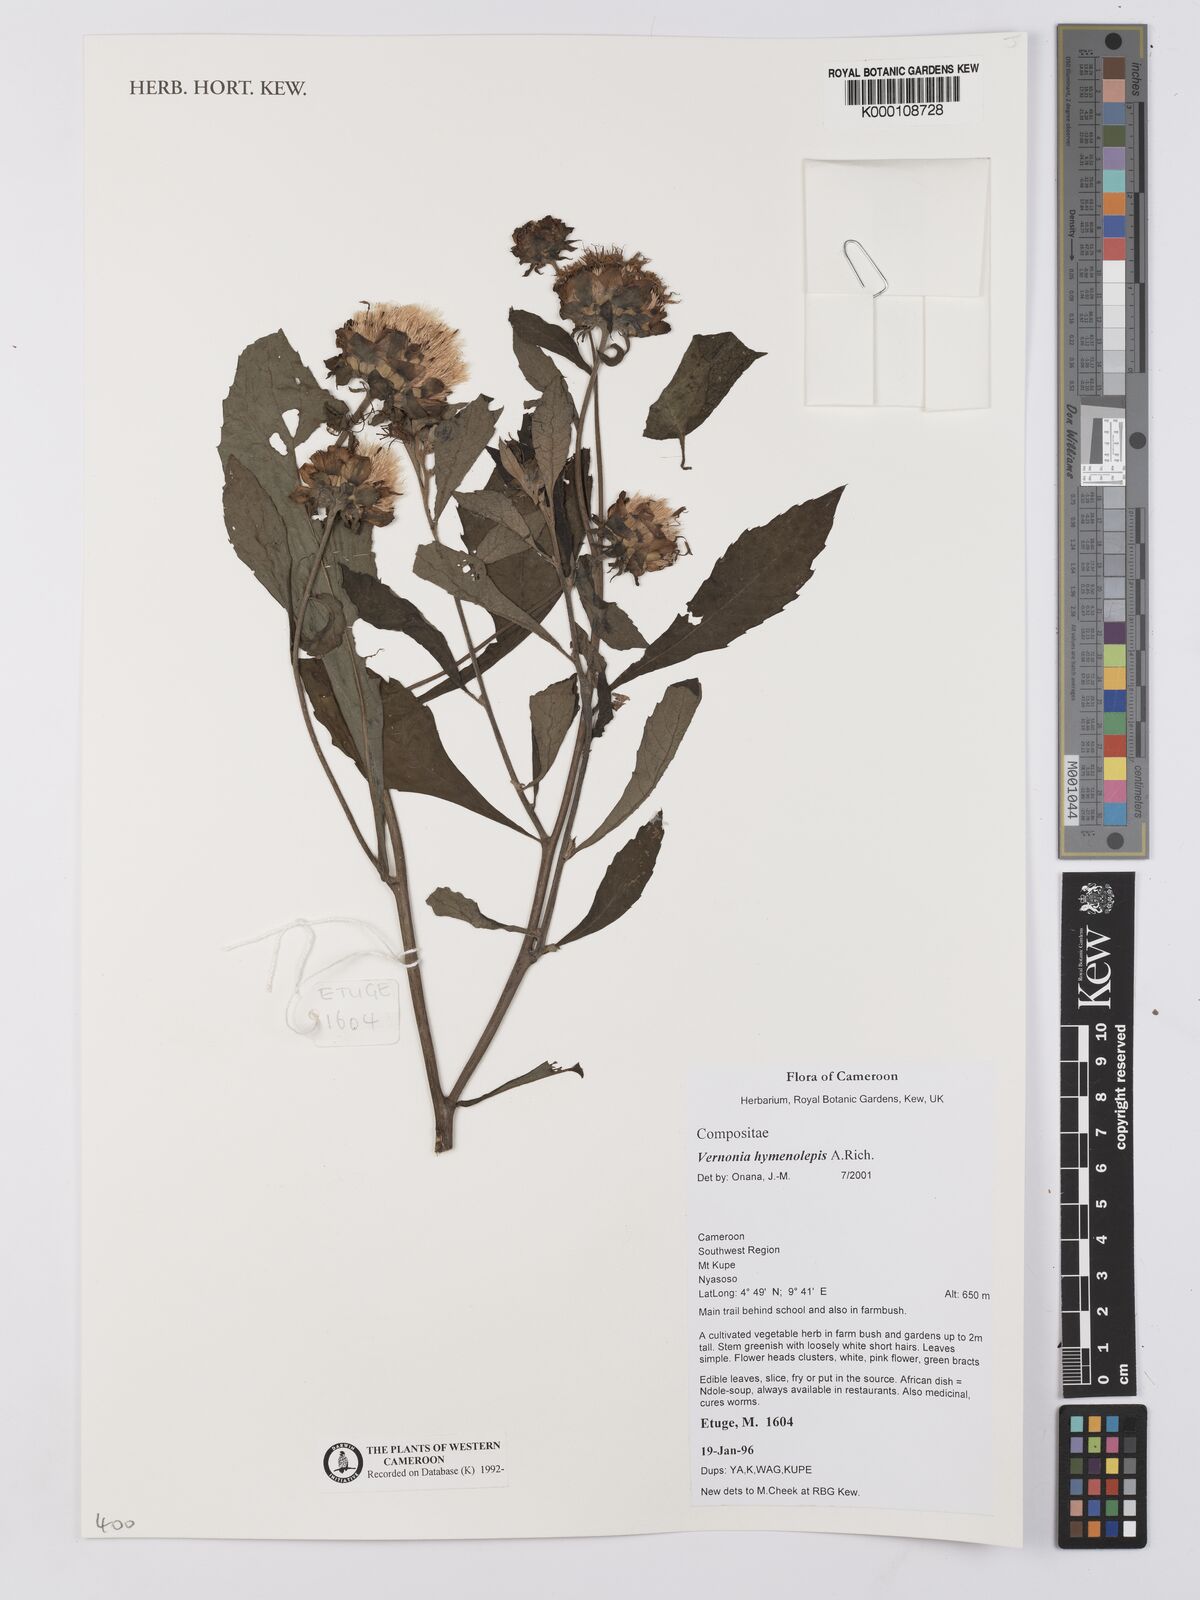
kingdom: Plantae
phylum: Tracheophyta
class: Magnoliopsida
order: Asterales
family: Asteraceae
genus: Baccharoides
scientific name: Baccharoides hymenolepis
